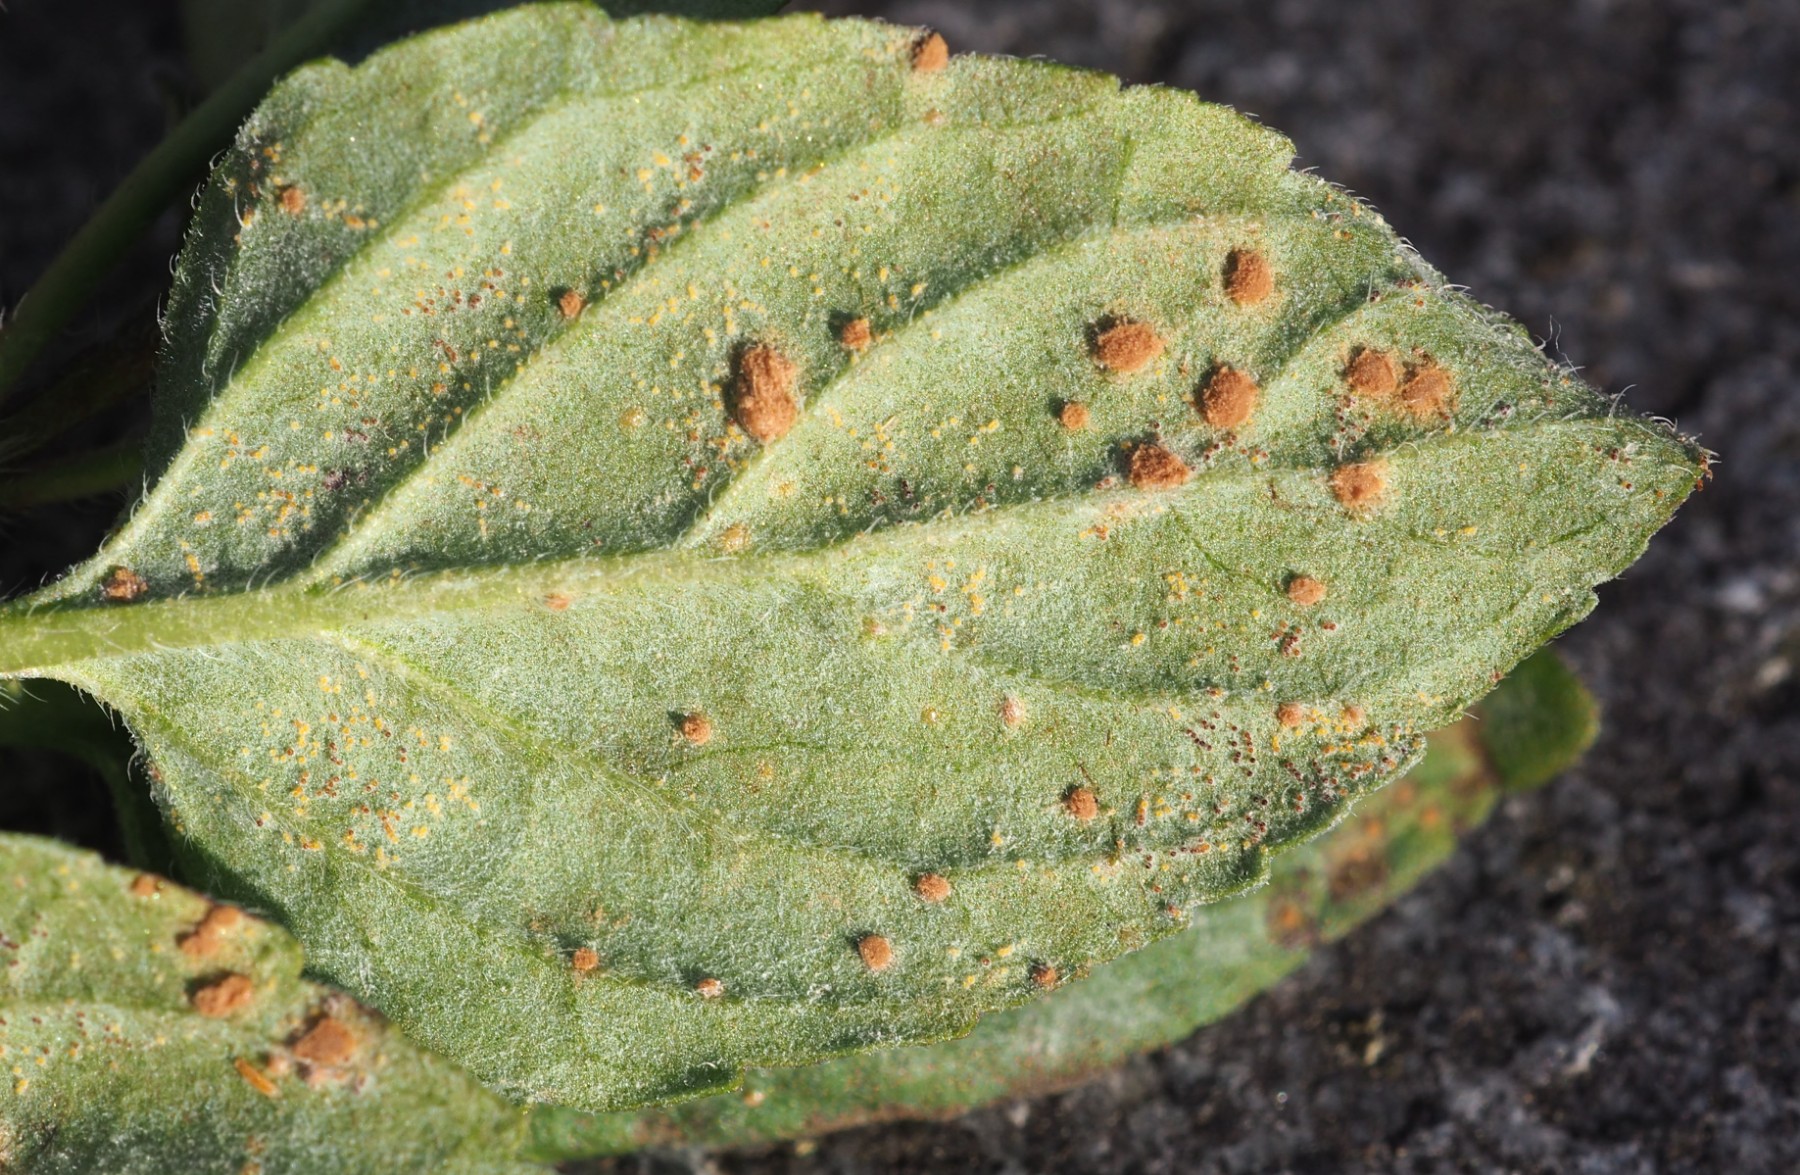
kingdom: Fungi
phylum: Basidiomycota
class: Pucciniomycetes
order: Pucciniales
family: Pucciniaceae
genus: Puccinia
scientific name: Puccinia menthae
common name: Mint rust
